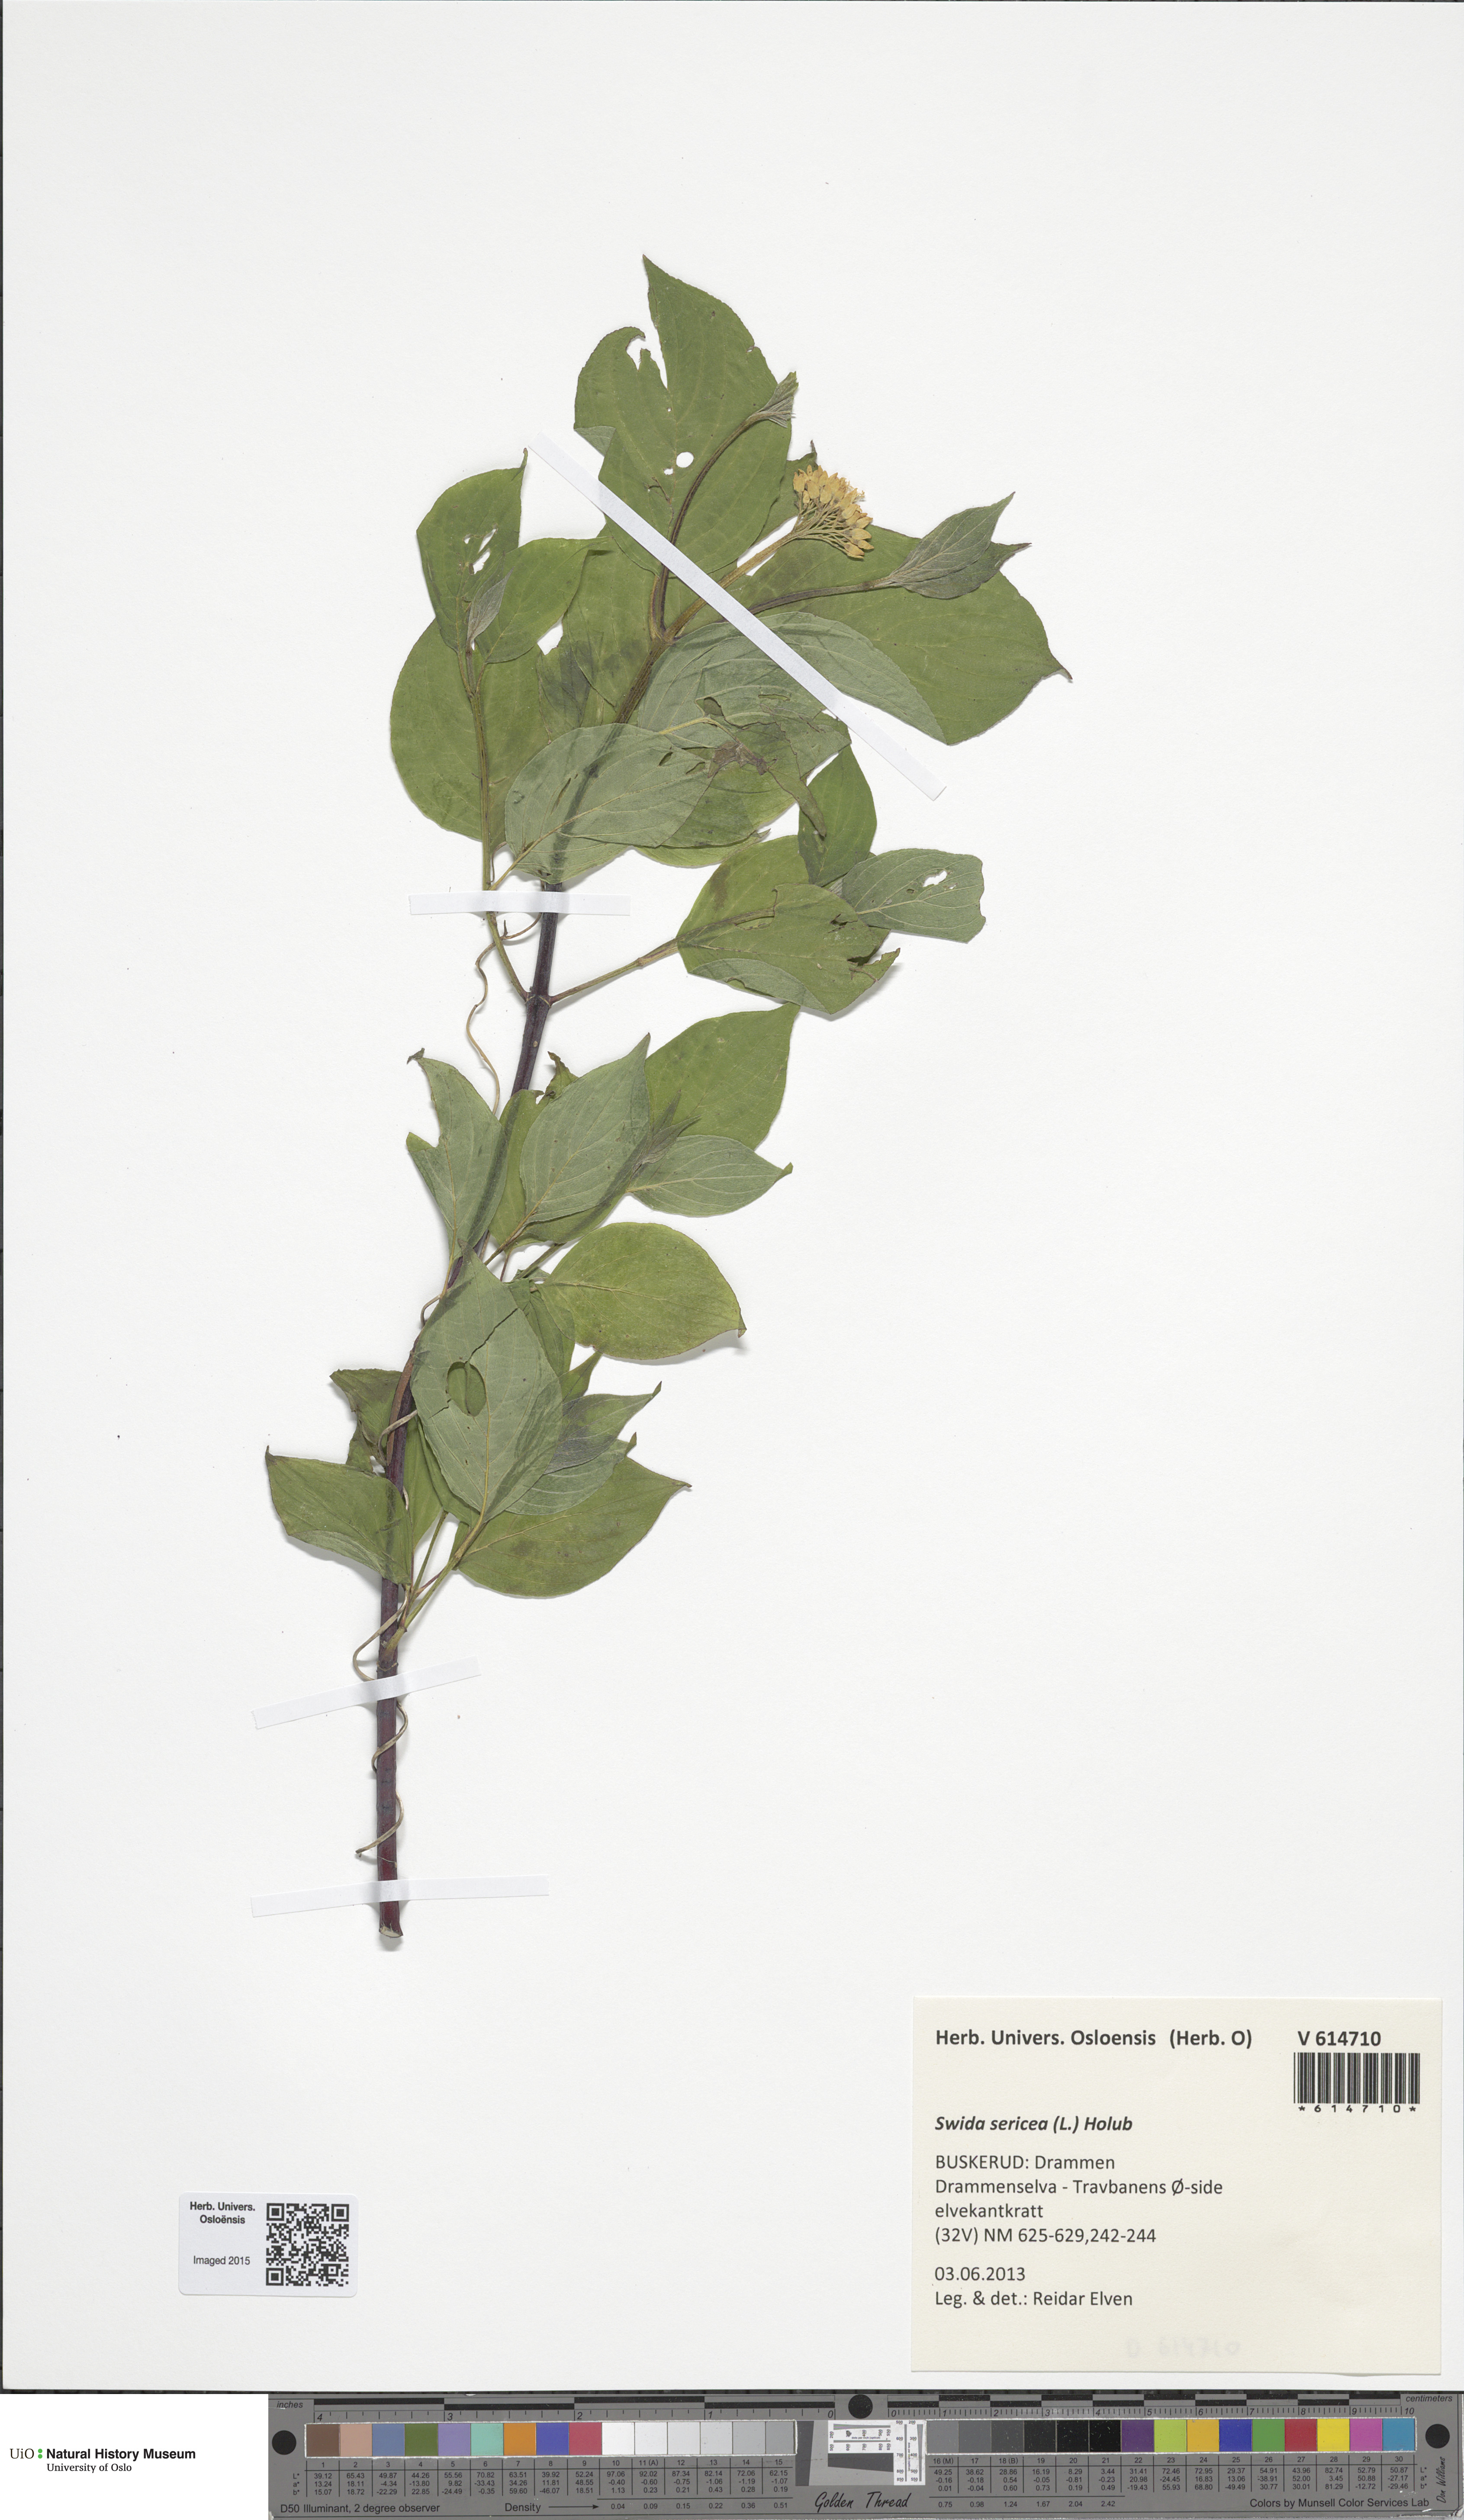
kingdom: Plantae
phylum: Tracheophyta
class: Magnoliopsida
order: Cornales
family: Cornaceae
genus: Cornus
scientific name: Cornus alba
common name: White dogwood
